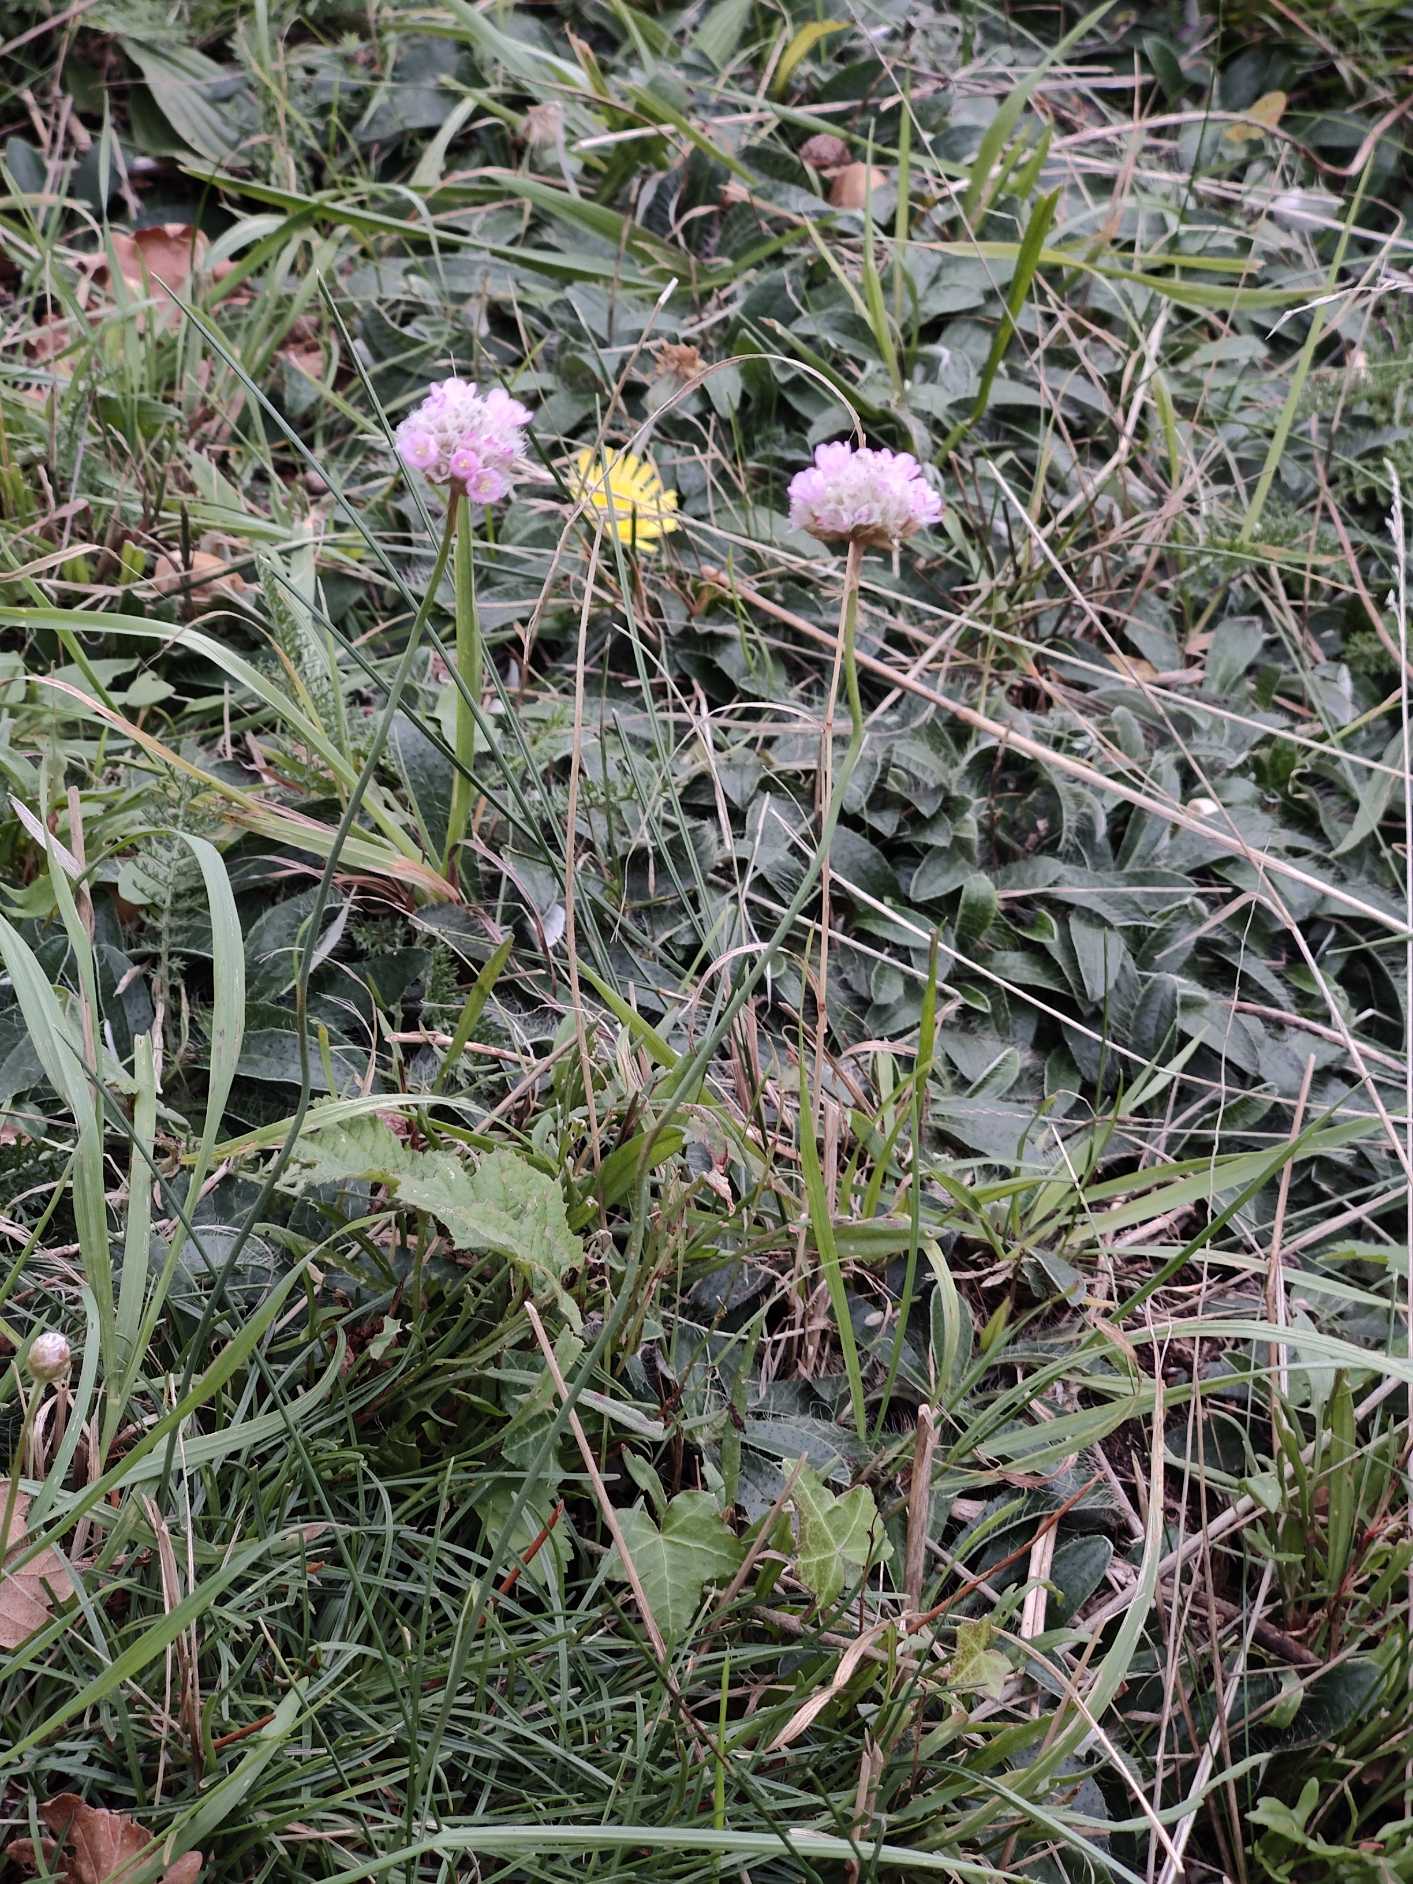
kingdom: Plantae
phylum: Tracheophyta
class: Magnoliopsida
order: Caryophyllales
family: Plumbaginaceae
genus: Armeria
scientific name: Armeria maritima
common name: Engelskgræs
